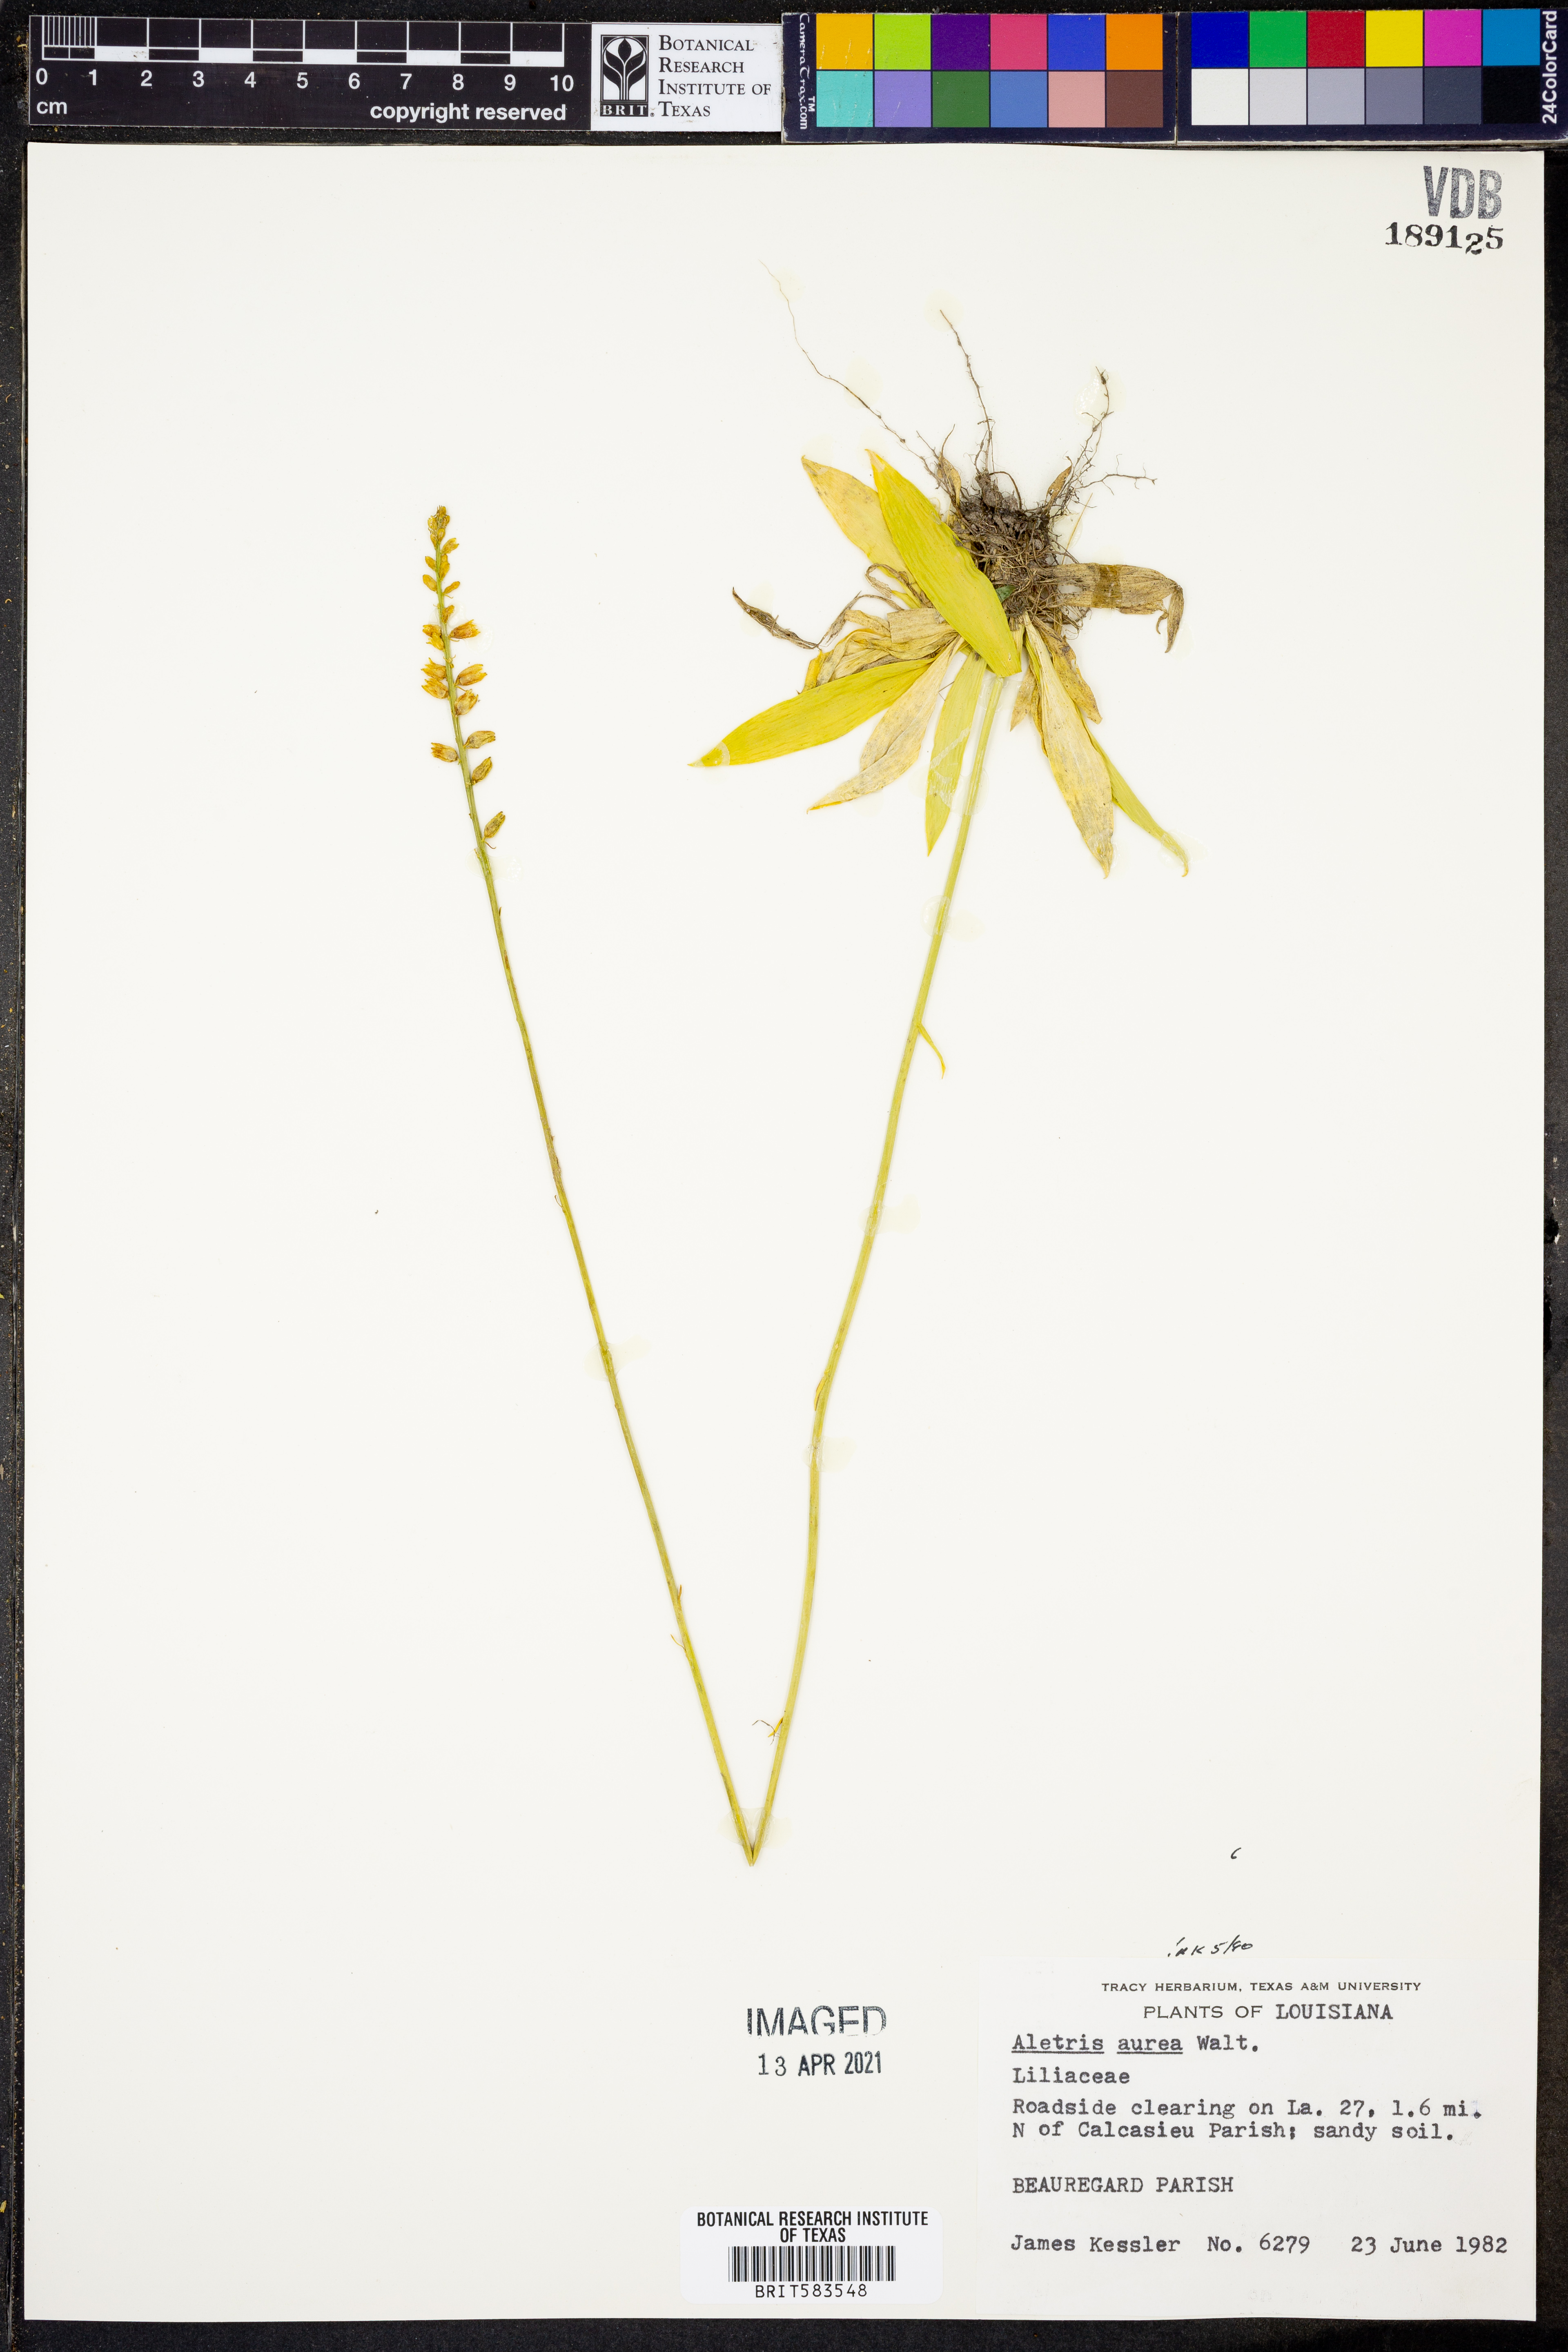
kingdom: Plantae
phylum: Tracheophyta
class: Liliopsida
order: Dioscoreales
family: Nartheciaceae
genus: Aletris
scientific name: Aletris aurea
